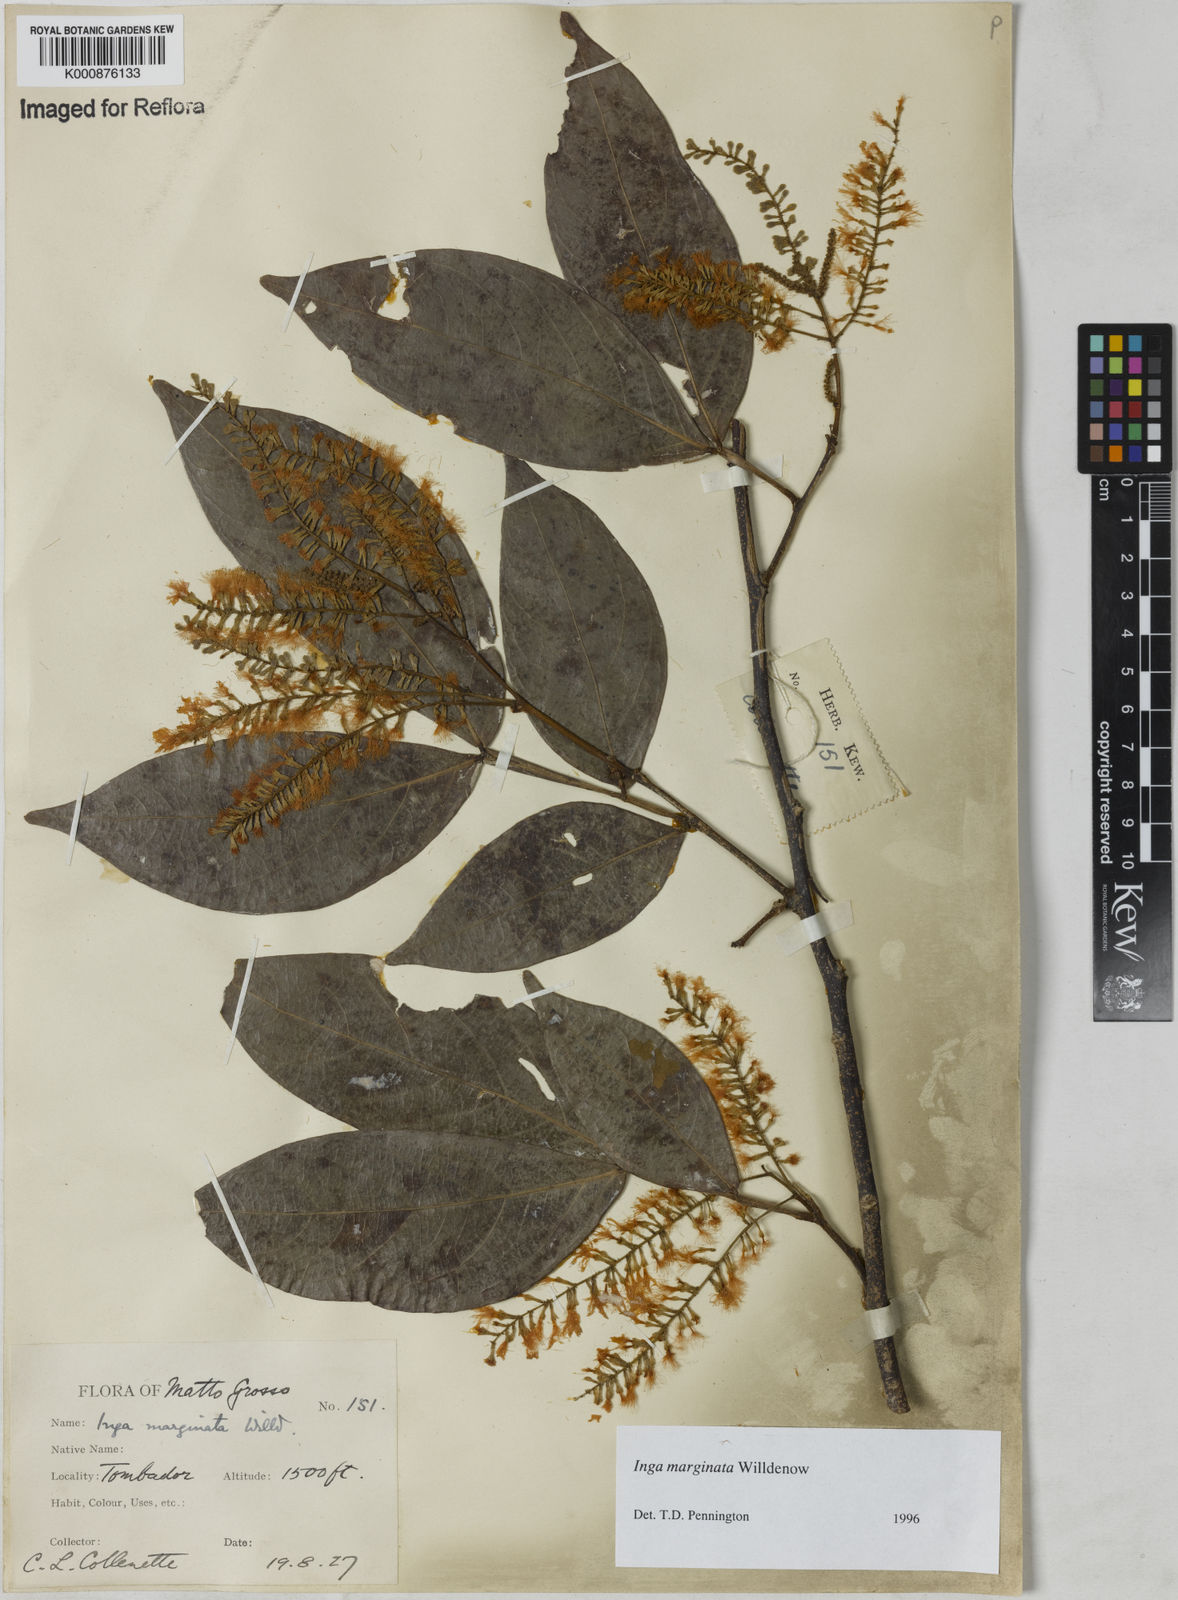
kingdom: Plantae
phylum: Tracheophyta
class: Magnoliopsida
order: Fabales
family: Fabaceae
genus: Inga
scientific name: Inga marginata
